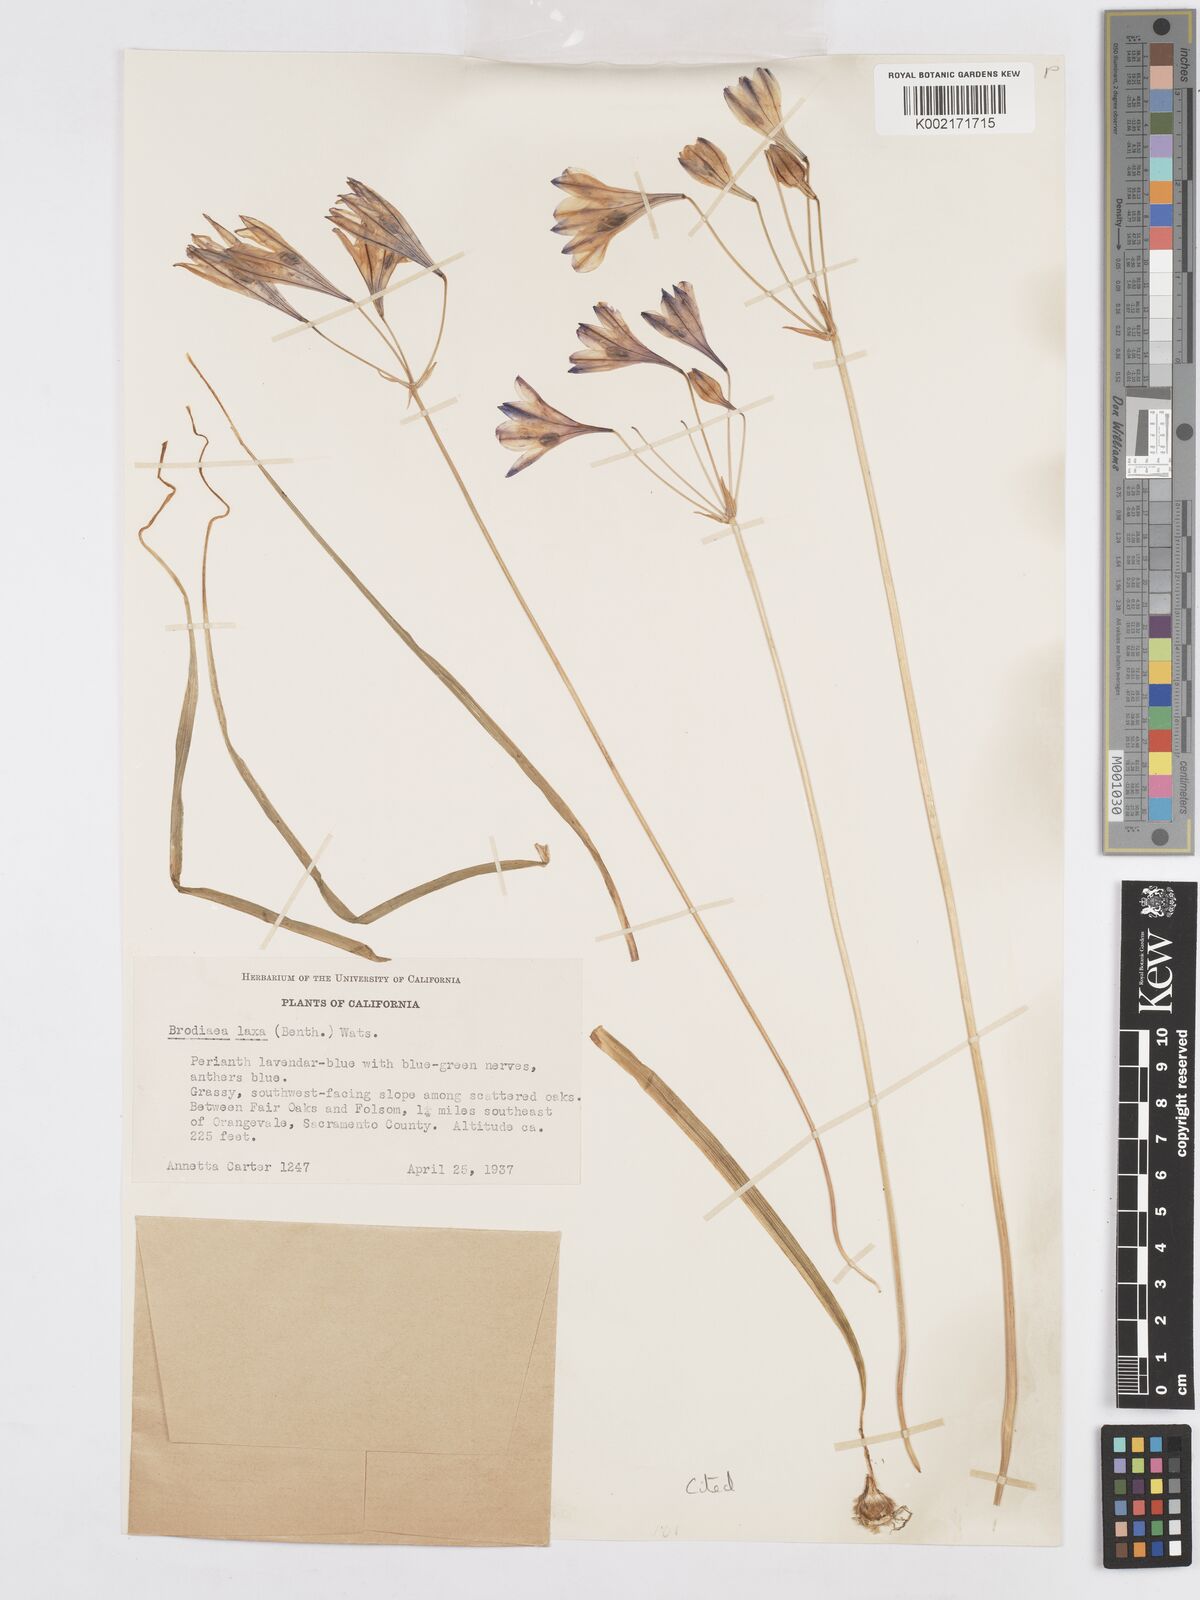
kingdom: Plantae
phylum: Tracheophyta
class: Liliopsida
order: Asparagales
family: Asparagaceae
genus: Triteleia
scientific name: Triteleia laxa
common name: Triplet-lily
